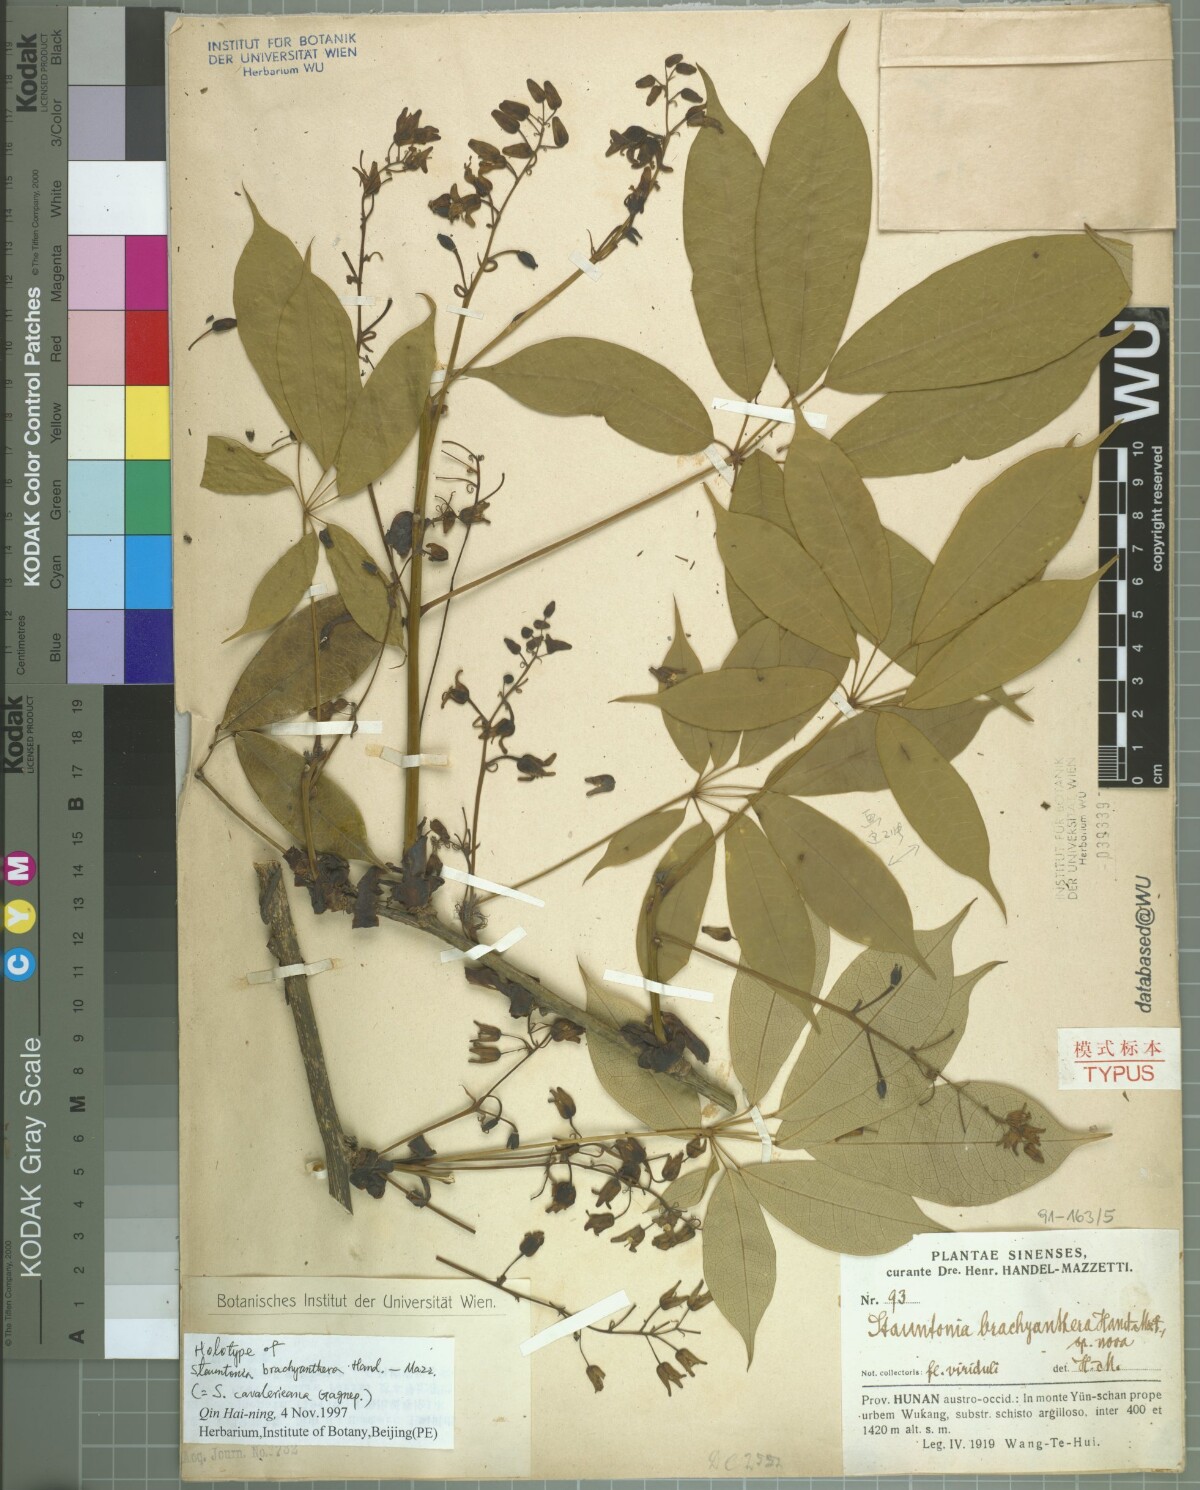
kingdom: Plantae
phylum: Tracheophyta
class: Magnoliopsida
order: Ranunculales
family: Lardizabalaceae
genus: Stauntonia
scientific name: Stauntonia cavalerieana
